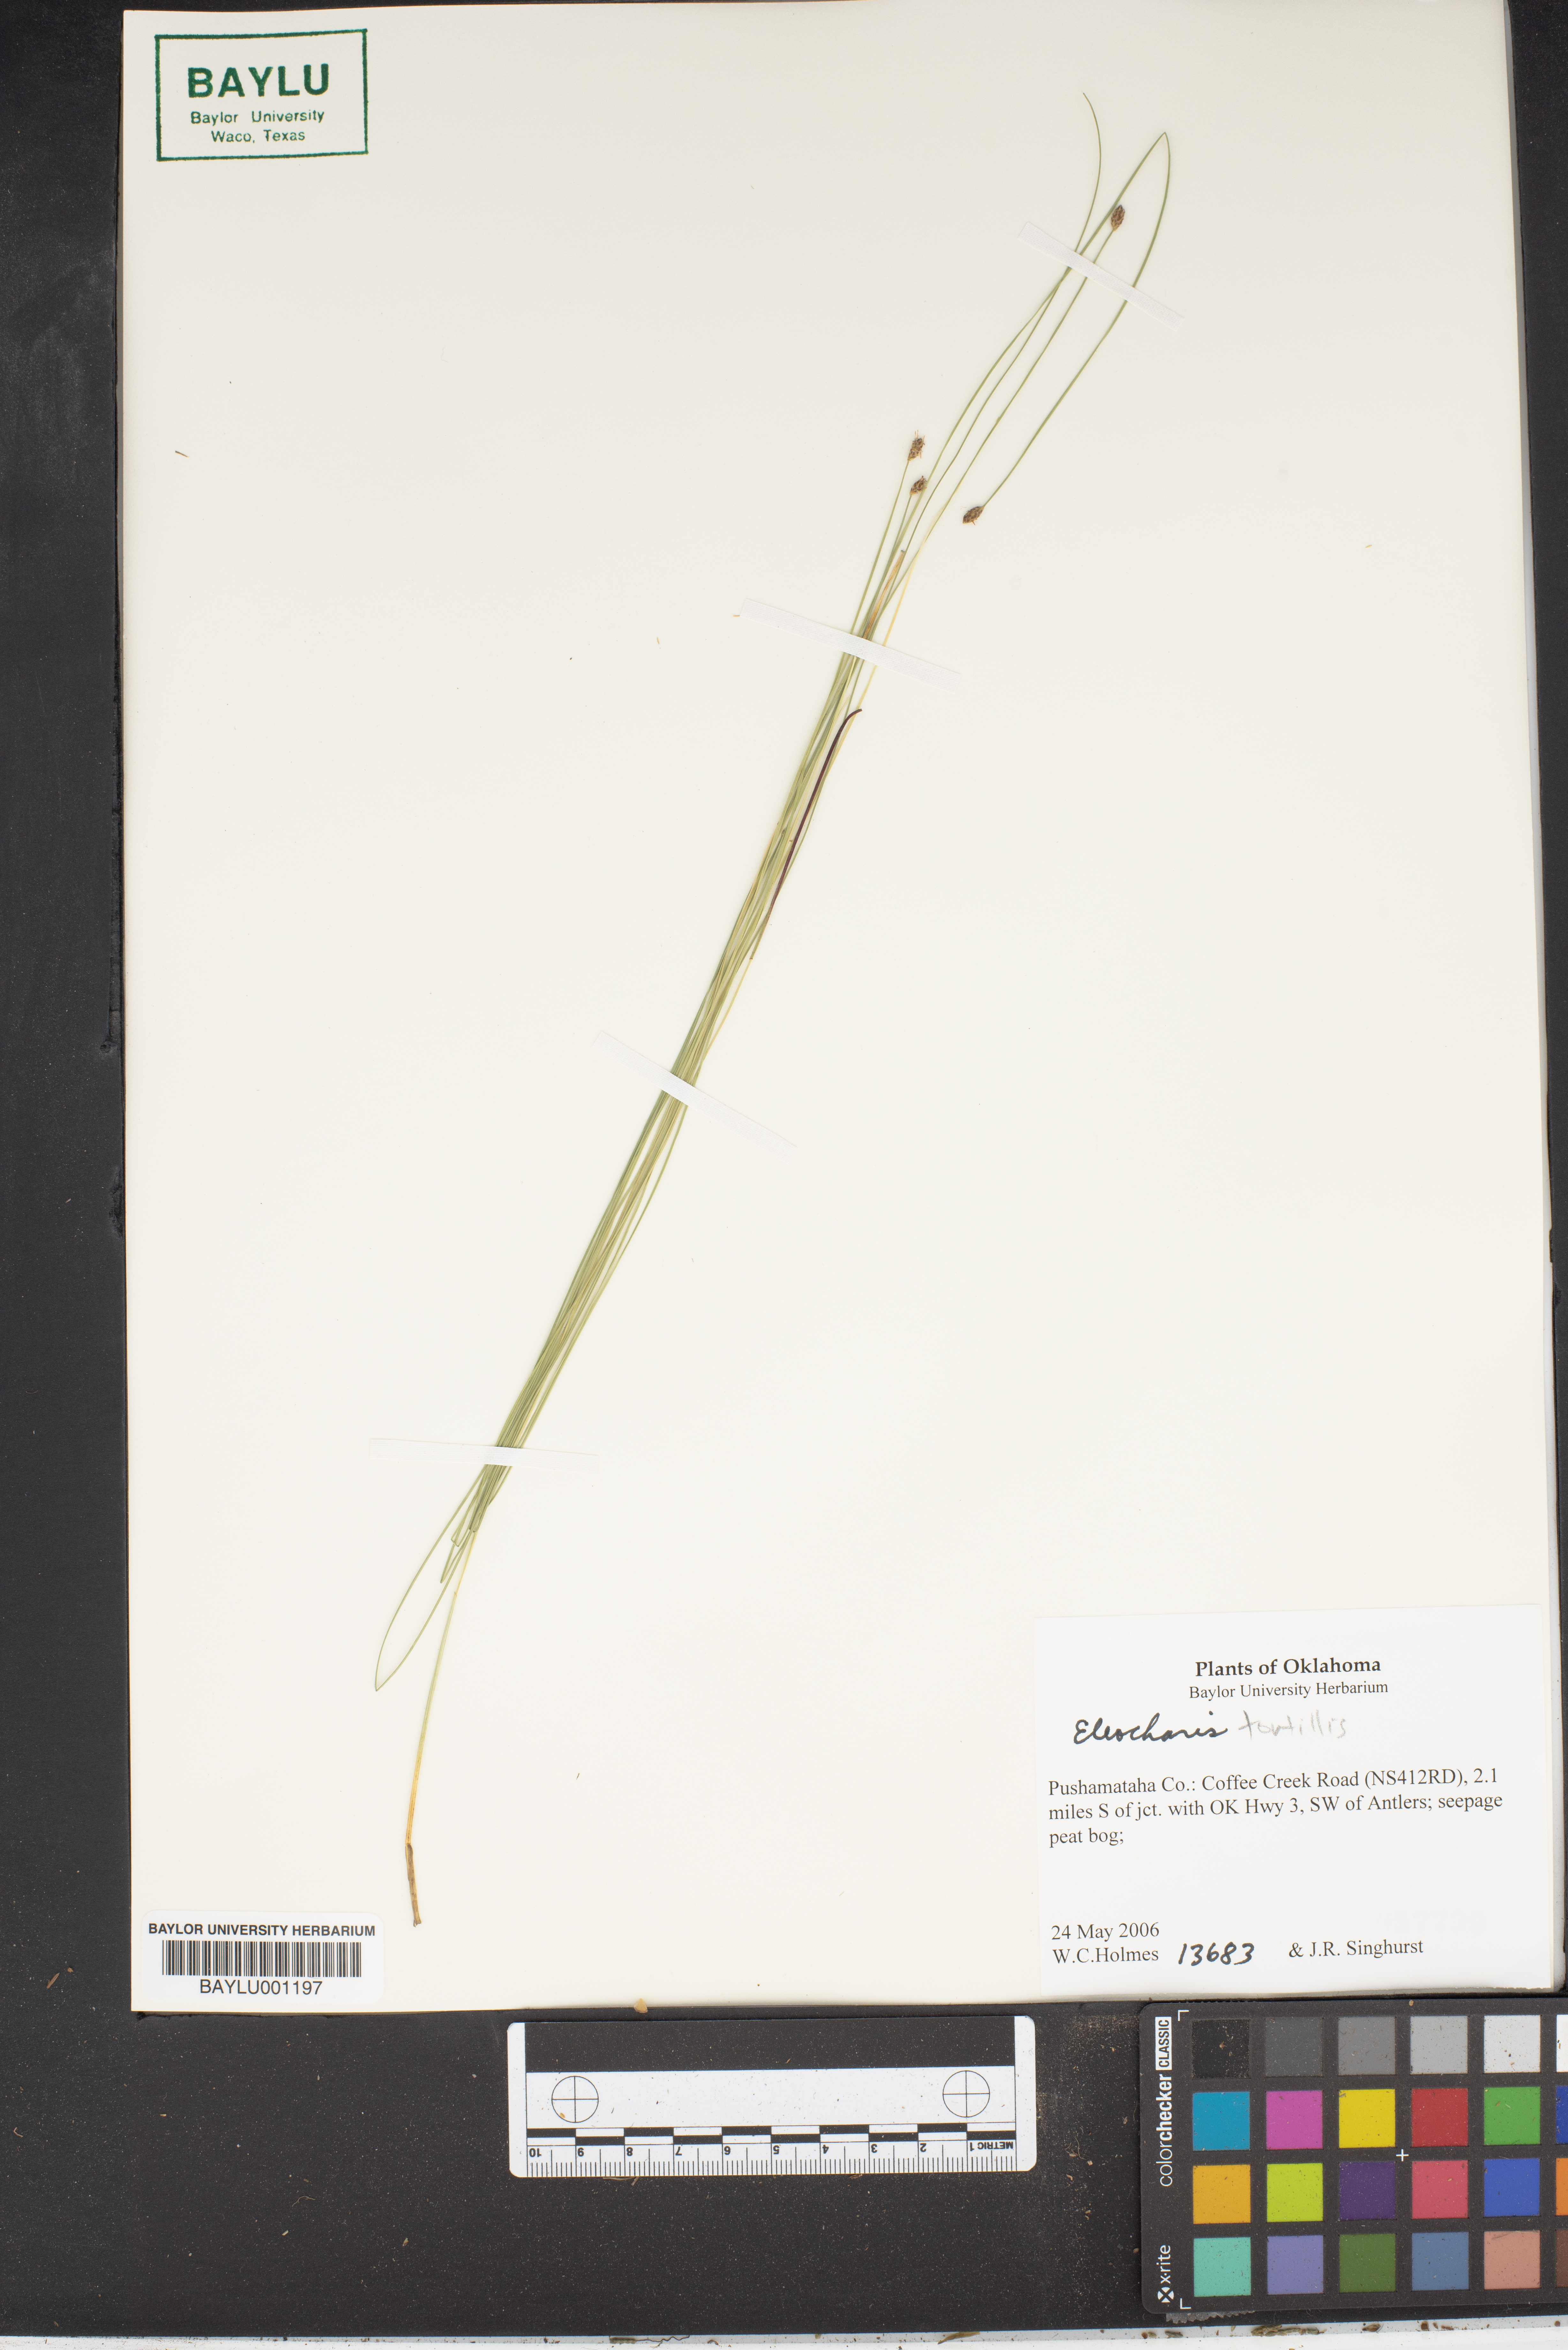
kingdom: Plantae
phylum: Tracheophyta
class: Liliopsida
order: Poales
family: Cyperaceae
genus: Eleocharis
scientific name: Eleocharis tortilis
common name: Twisted spike sedge
